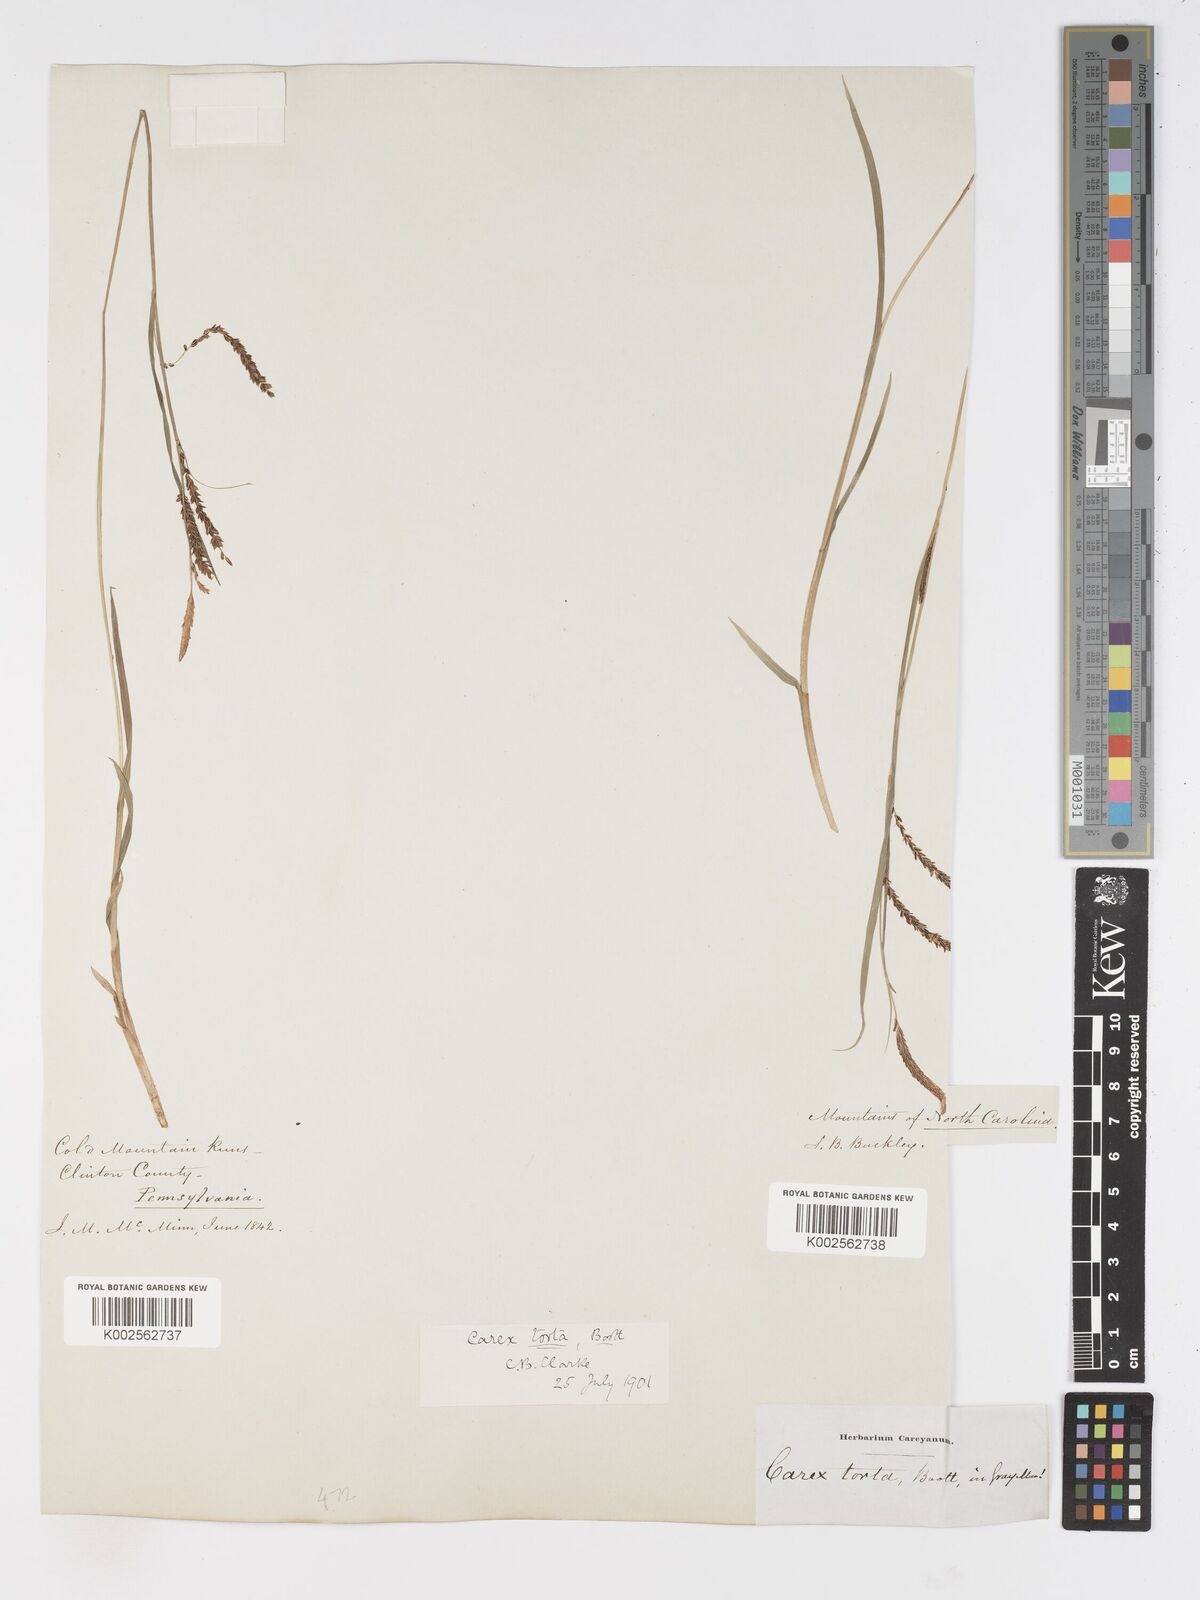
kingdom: Plantae
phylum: Tracheophyta
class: Liliopsida
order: Poales
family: Cyperaceae
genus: Carex
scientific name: Carex torta
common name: Twisted sedge
